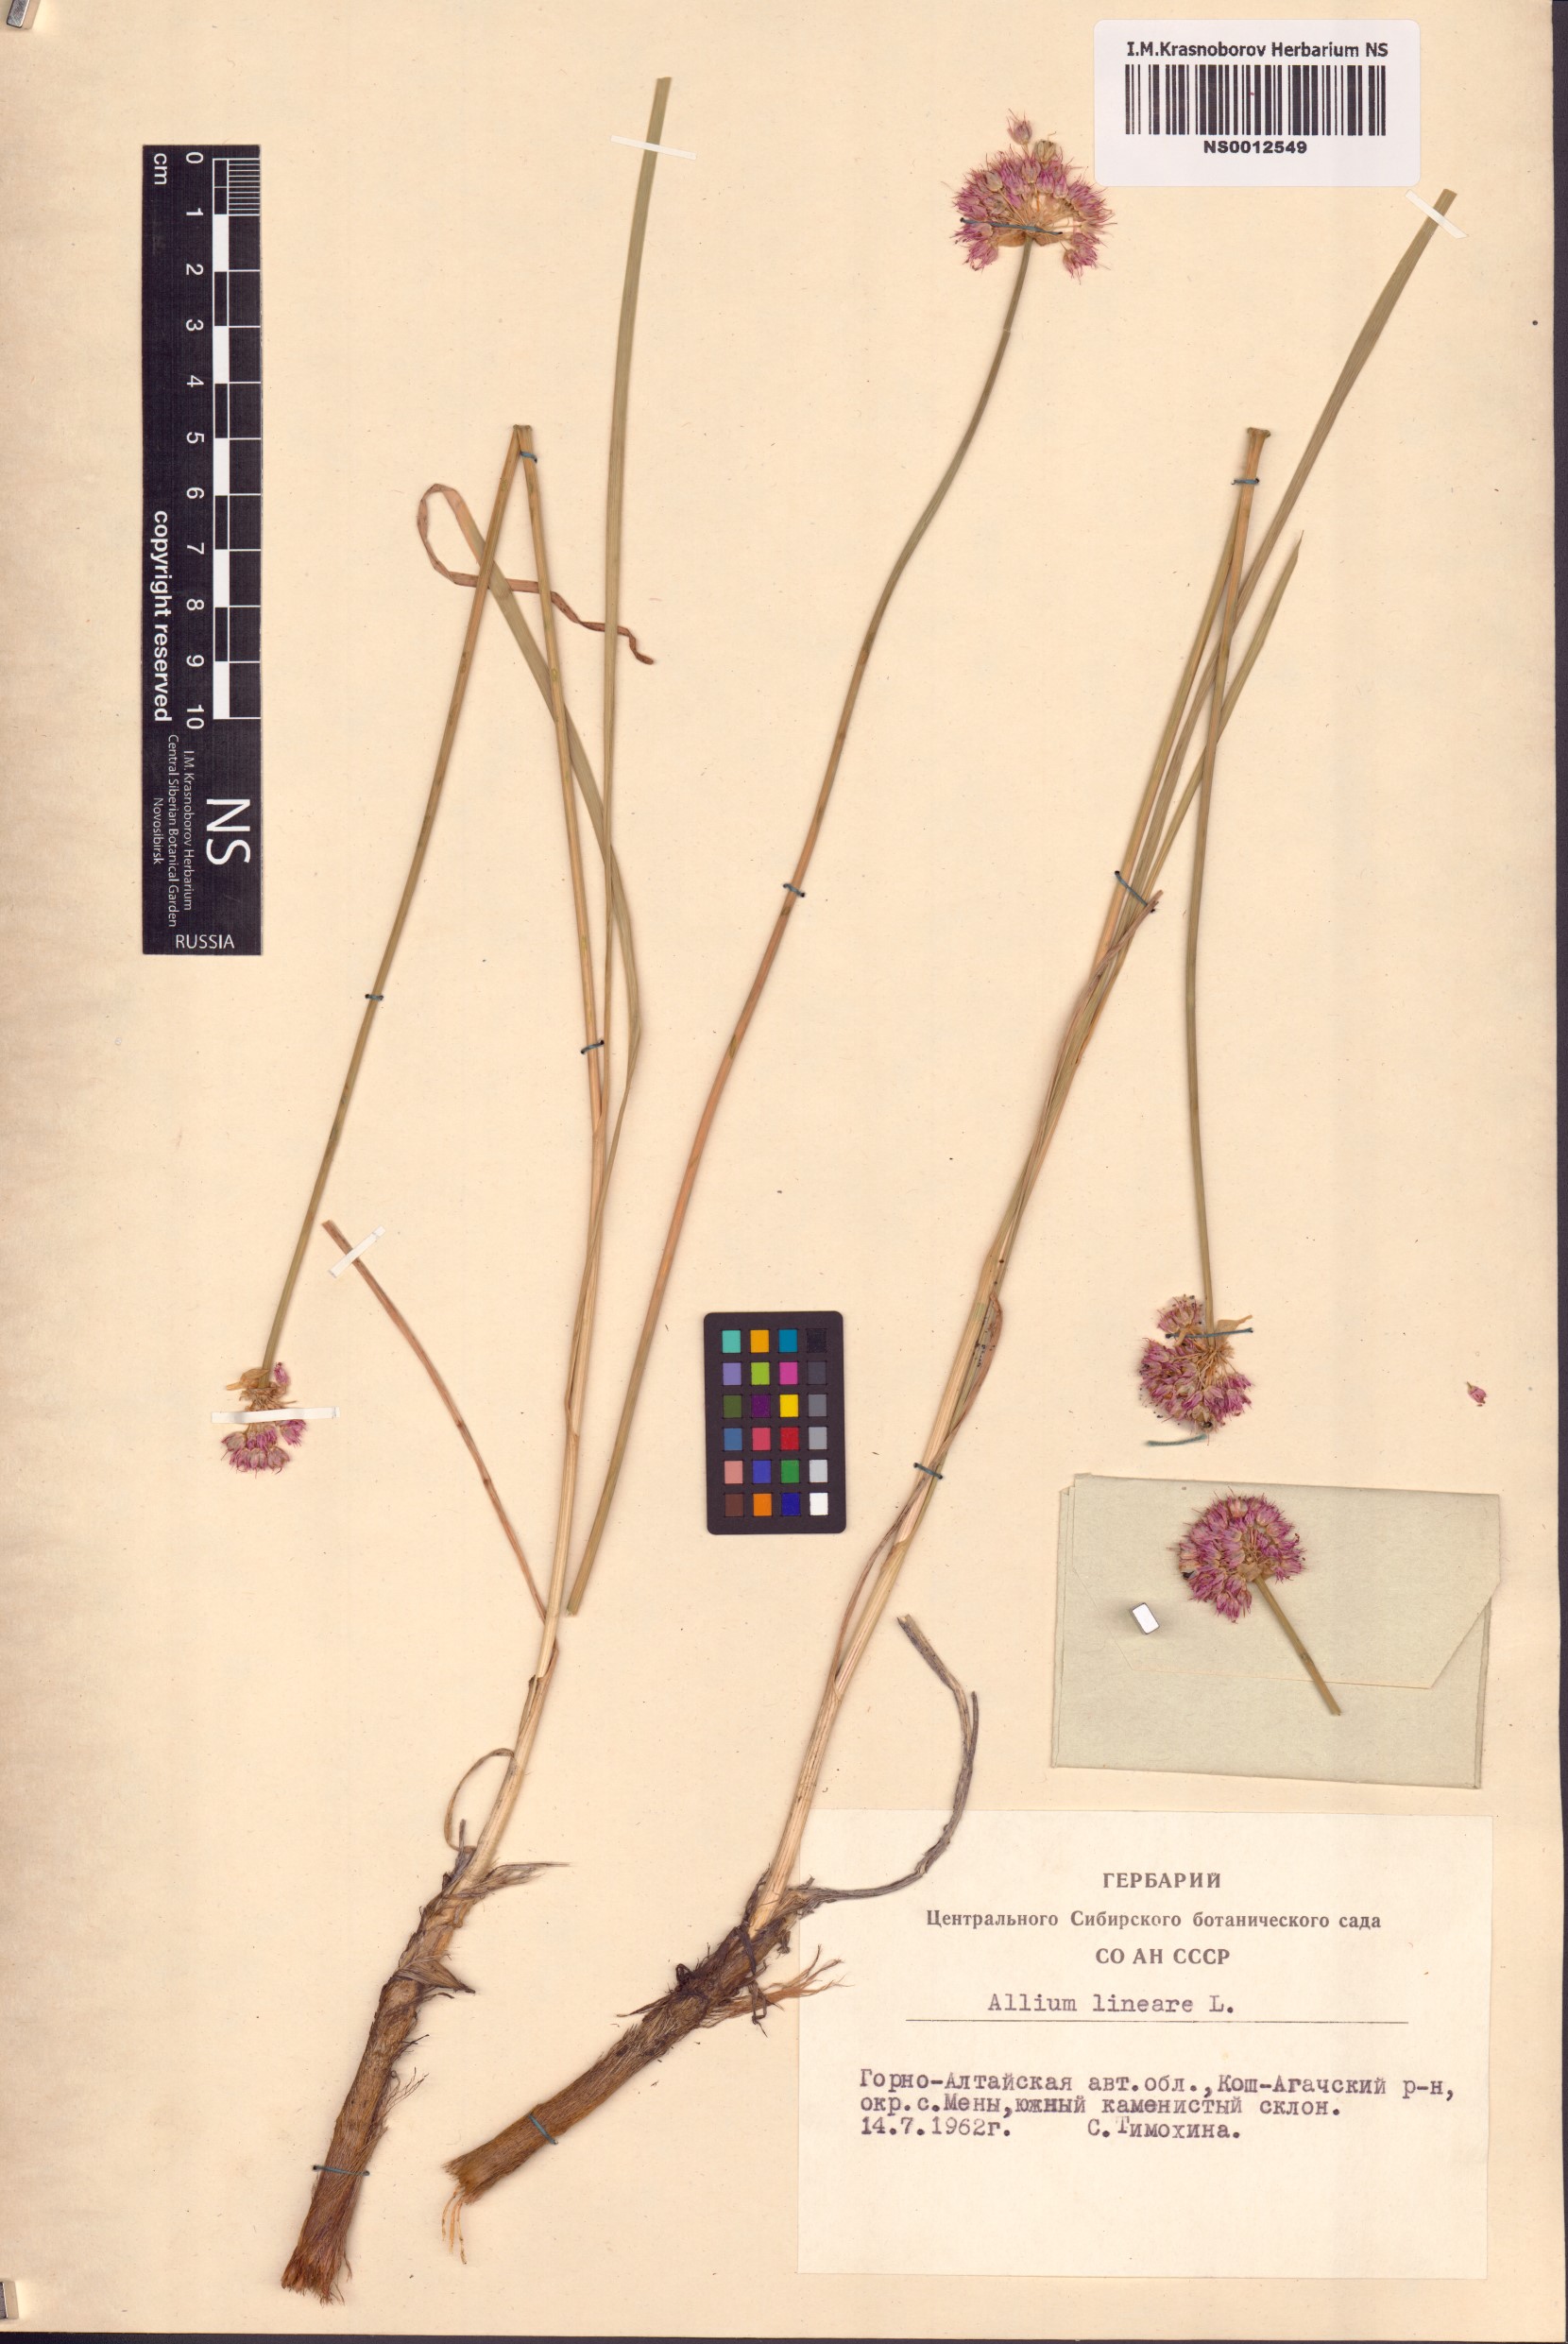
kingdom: Plantae
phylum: Tracheophyta
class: Liliopsida
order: Asparagales
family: Amaryllidaceae
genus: Allium
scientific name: Allium lineare
